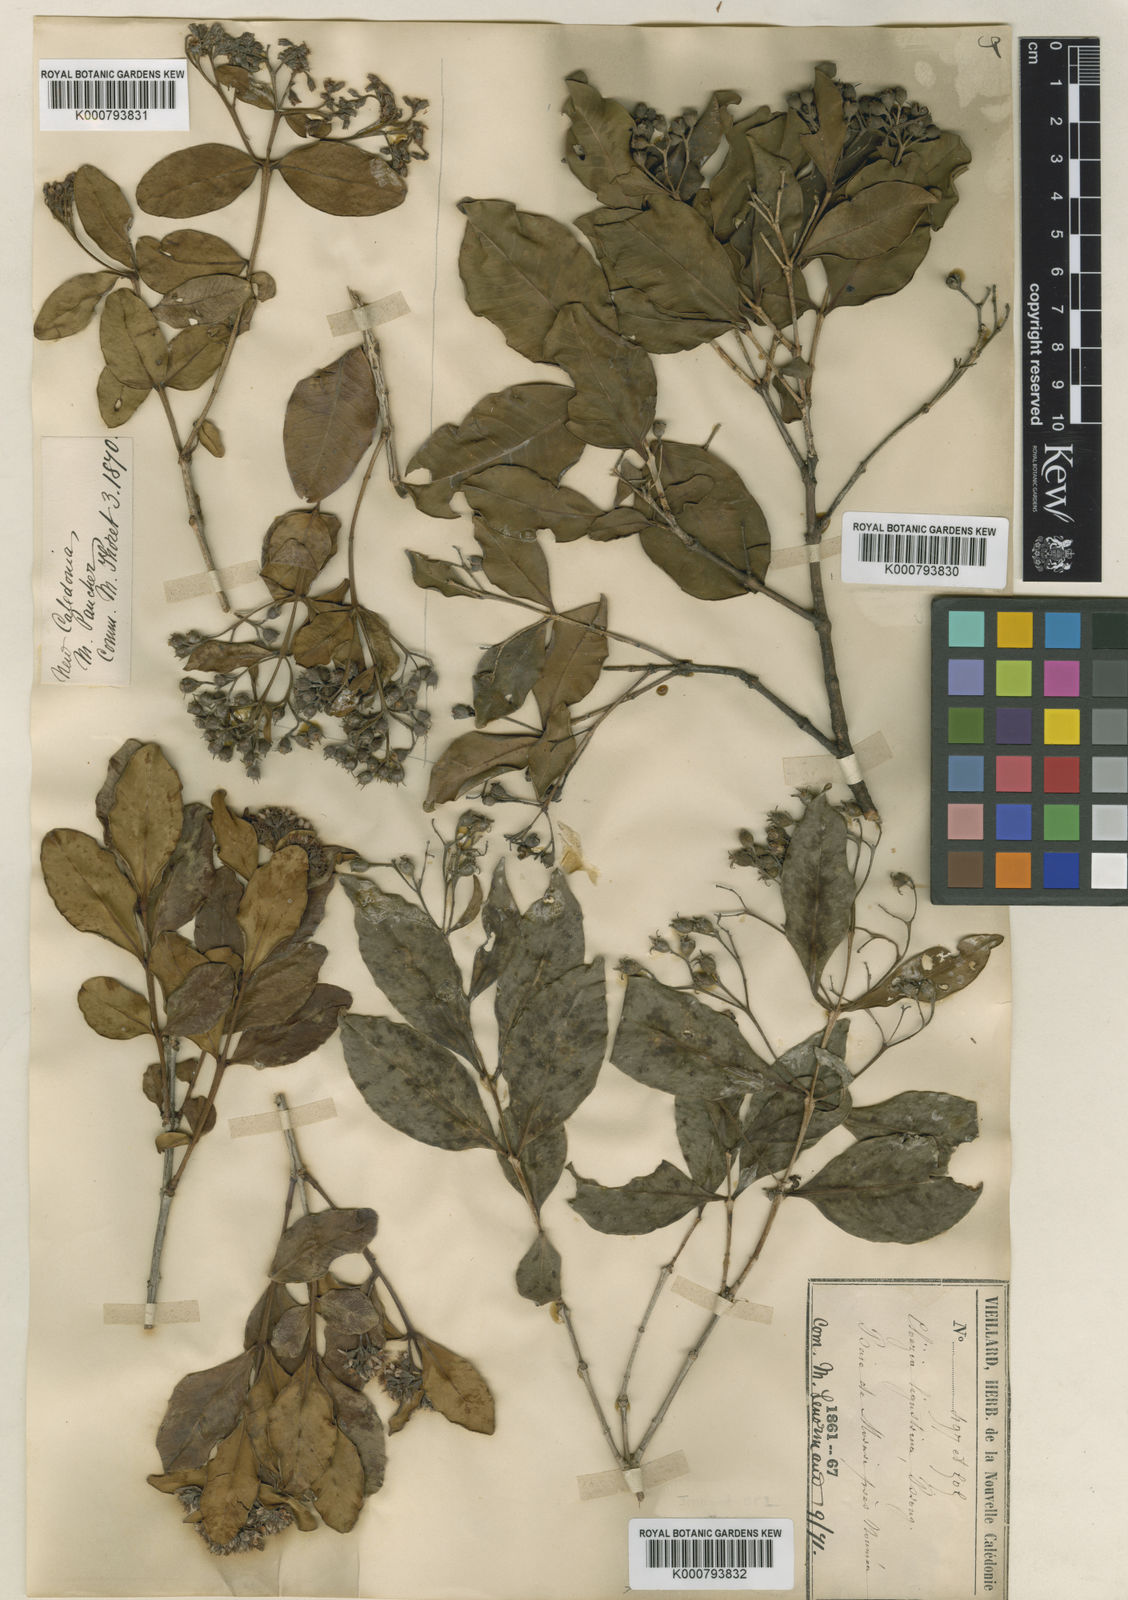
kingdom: Plantae
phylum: Tracheophyta
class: Magnoliopsida
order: Myrtales
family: Myrtaceae
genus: Cloezia
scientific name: Cloezia floribunda
